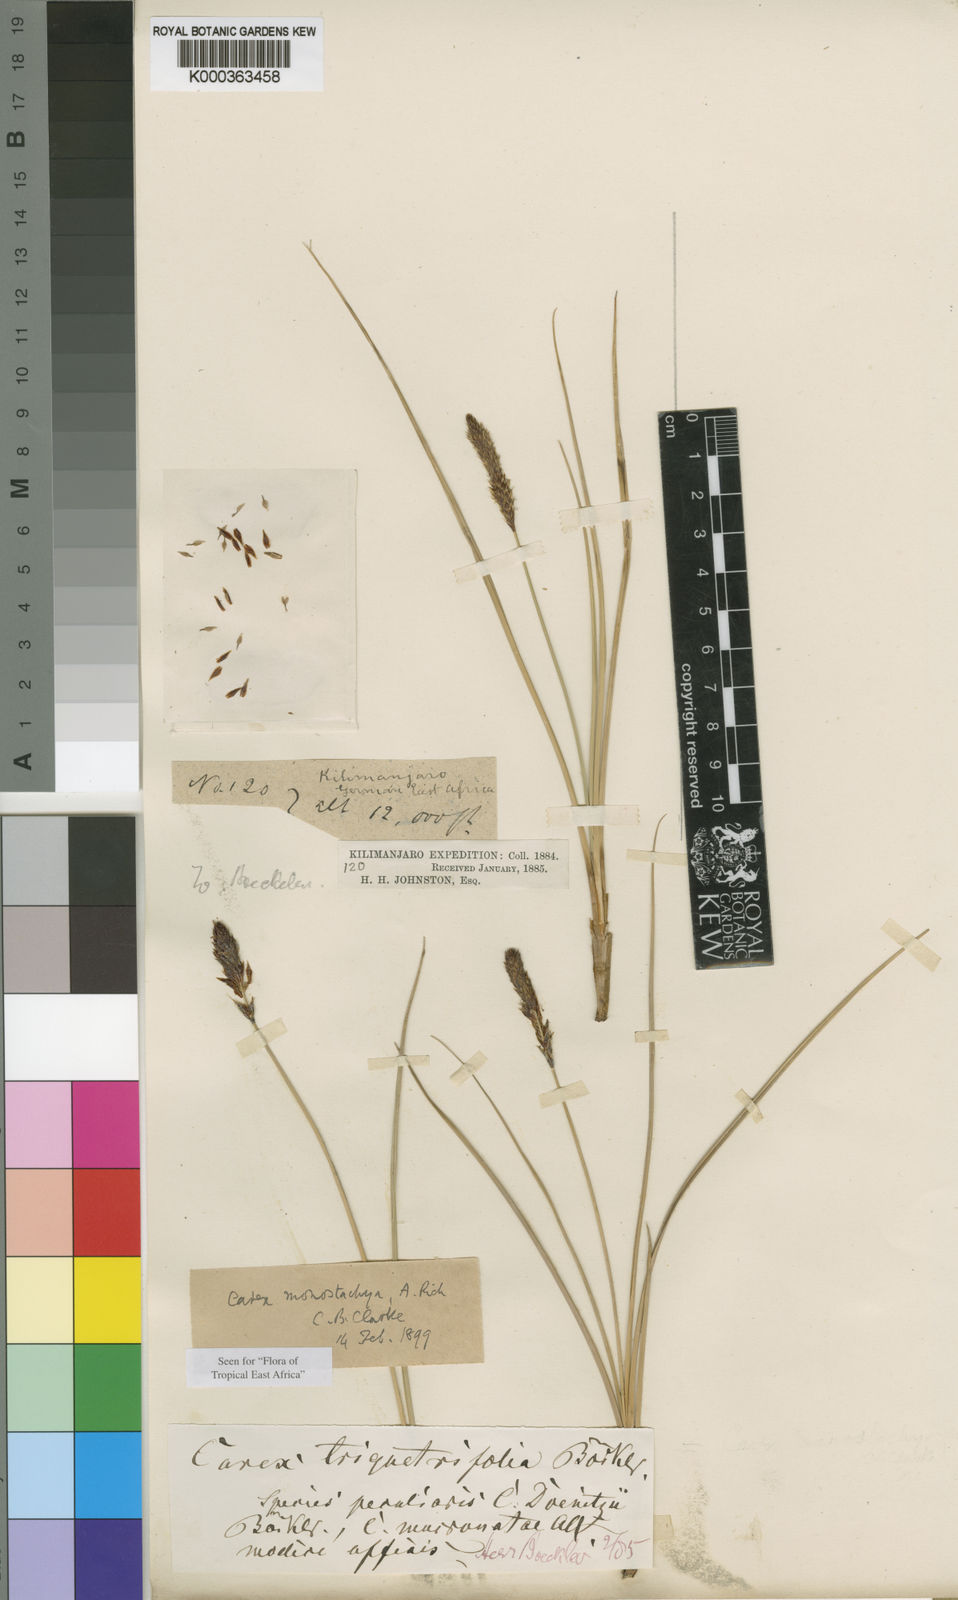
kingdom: Plantae
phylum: Tracheophyta
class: Liliopsida
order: Poales
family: Cyperaceae
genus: Carex
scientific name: Carex monostachya
